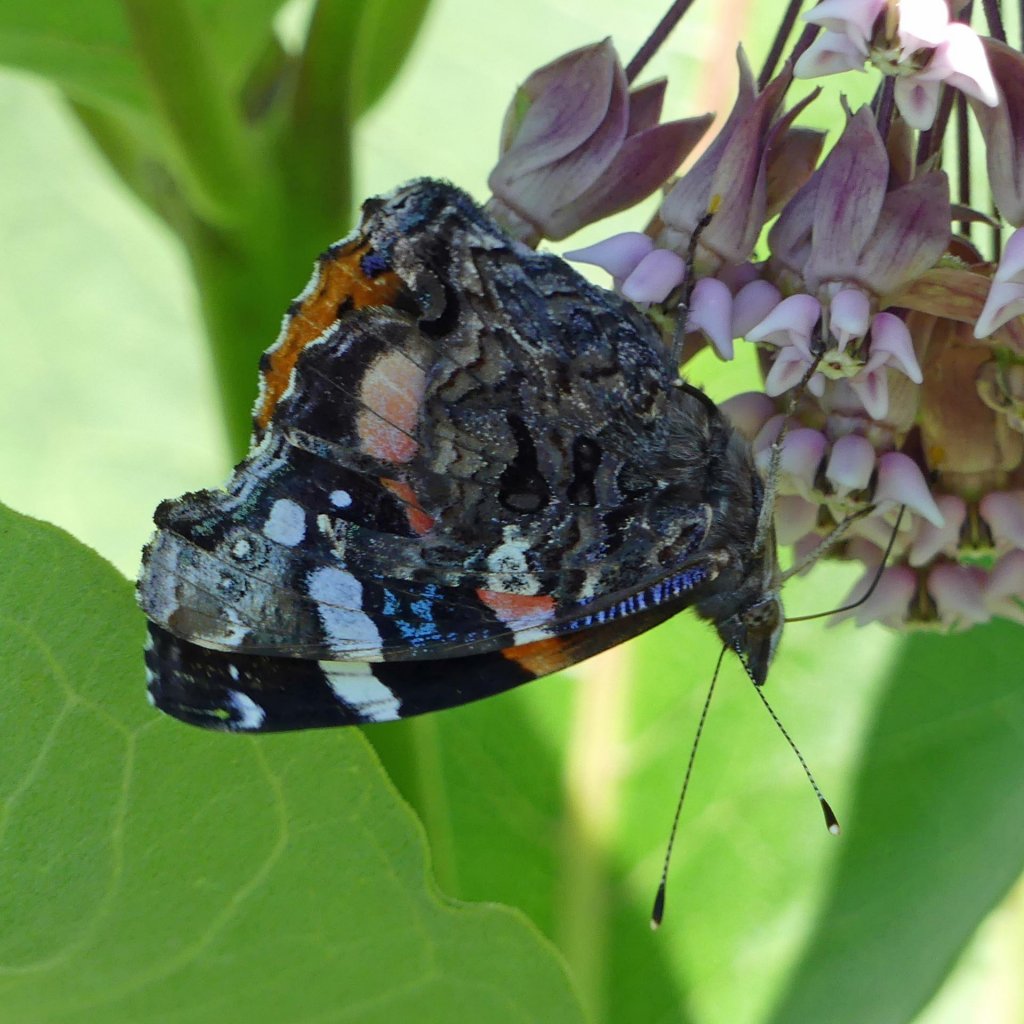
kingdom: Animalia
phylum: Arthropoda
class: Insecta
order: Lepidoptera
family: Nymphalidae
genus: Vanessa
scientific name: Vanessa atalanta
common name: Red Admiral
